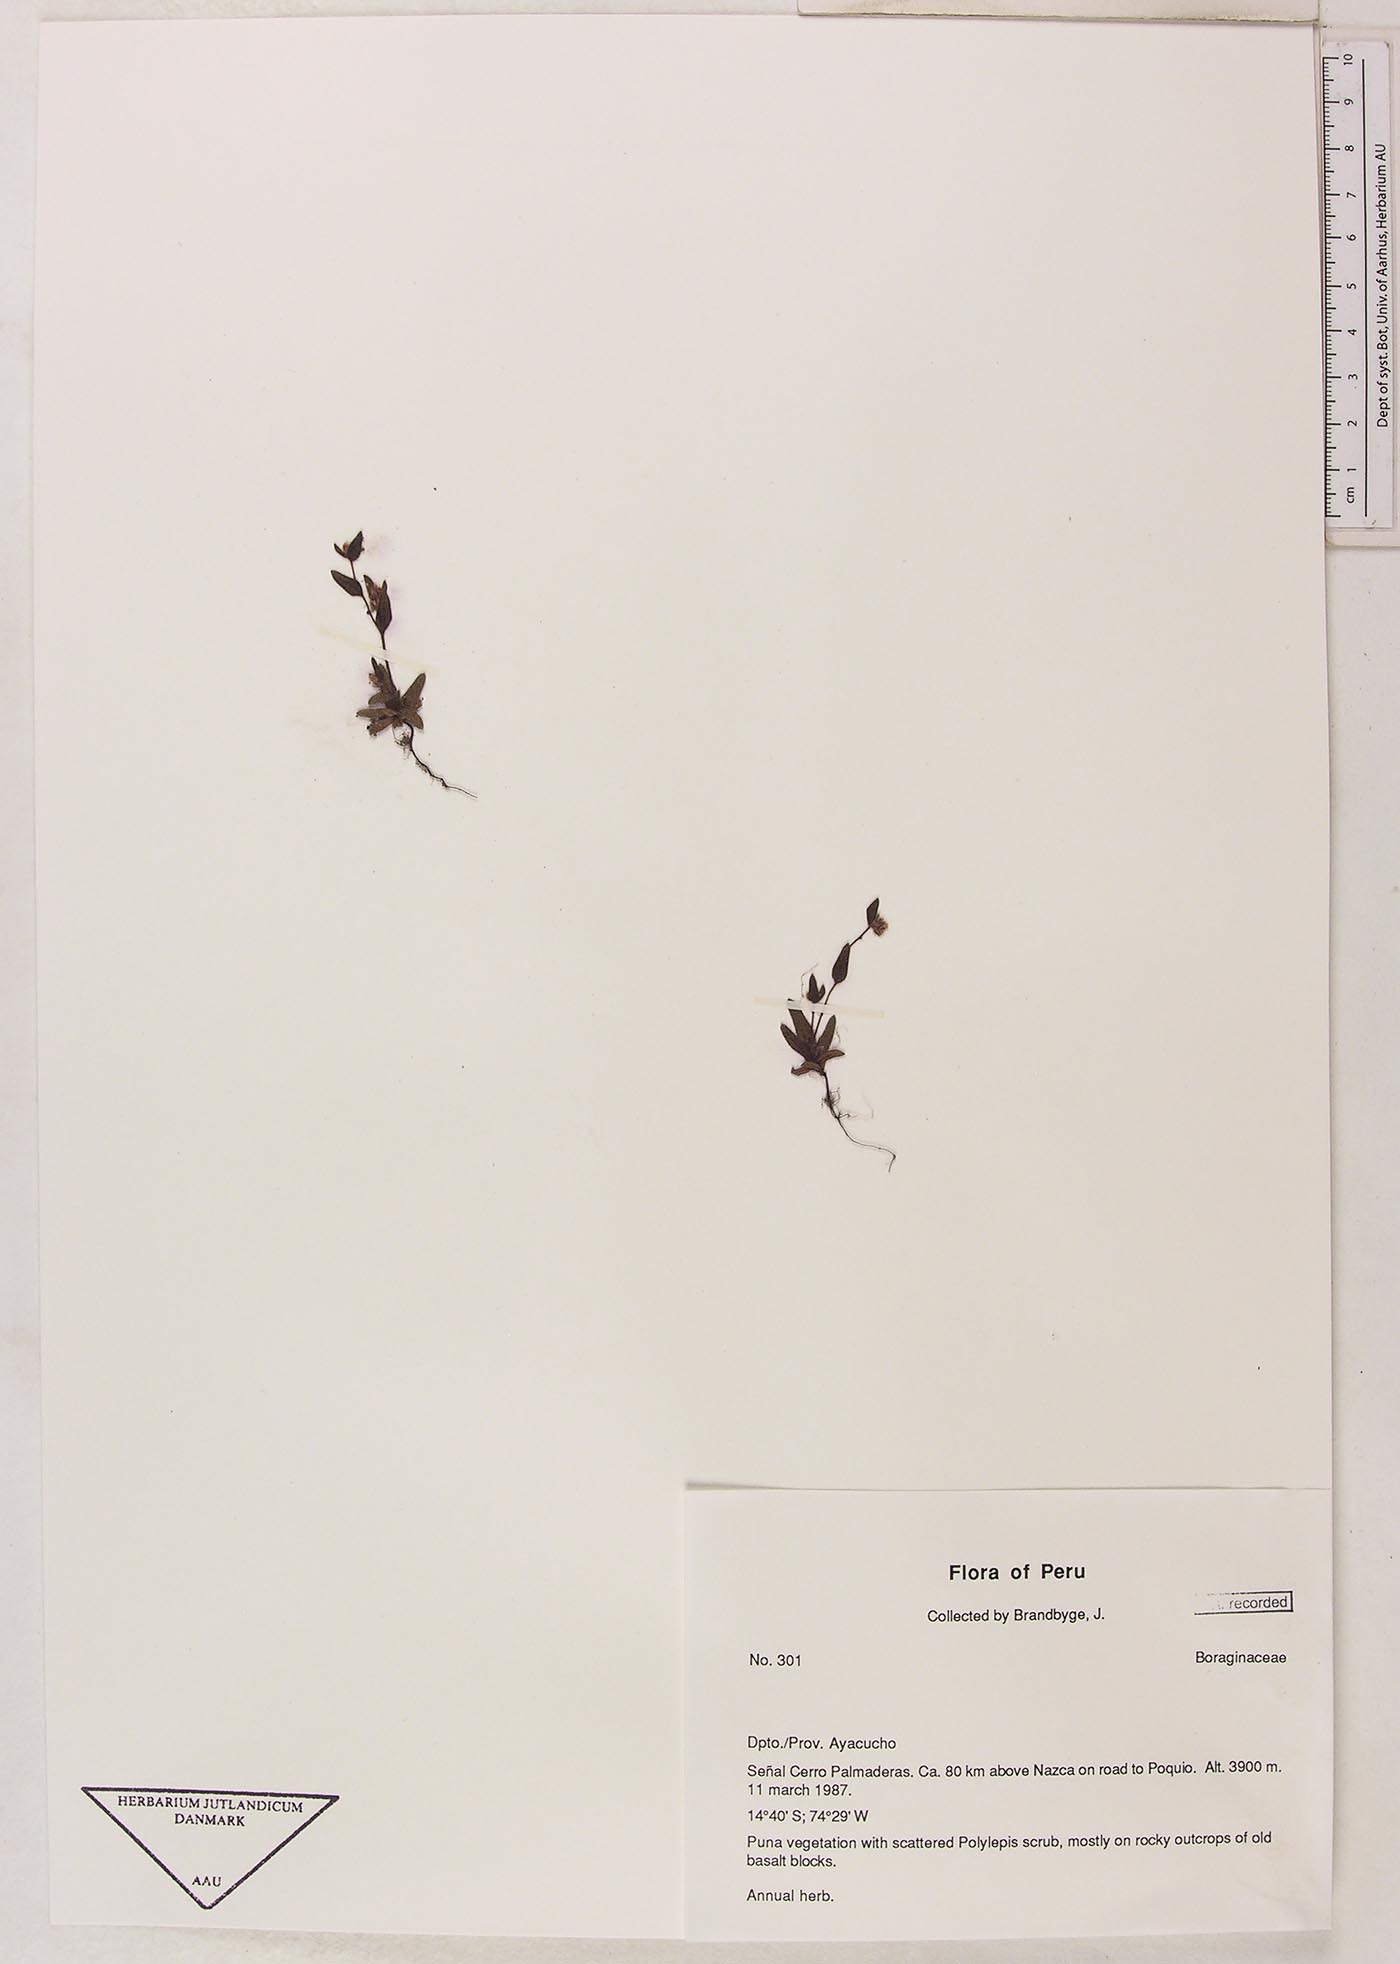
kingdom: Plantae
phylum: Tracheophyta
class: Magnoliopsida
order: Boraginales
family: Boraginaceae
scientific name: Boraginaceae
